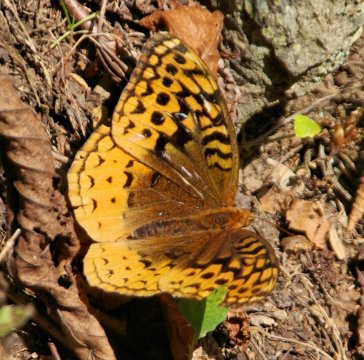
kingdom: Animalia
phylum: Arthropoda
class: Insecta
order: Lepidoptera
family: Nymphalidae
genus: Speyeria
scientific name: Speyeria cybele
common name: Great Spangled Fritillary
